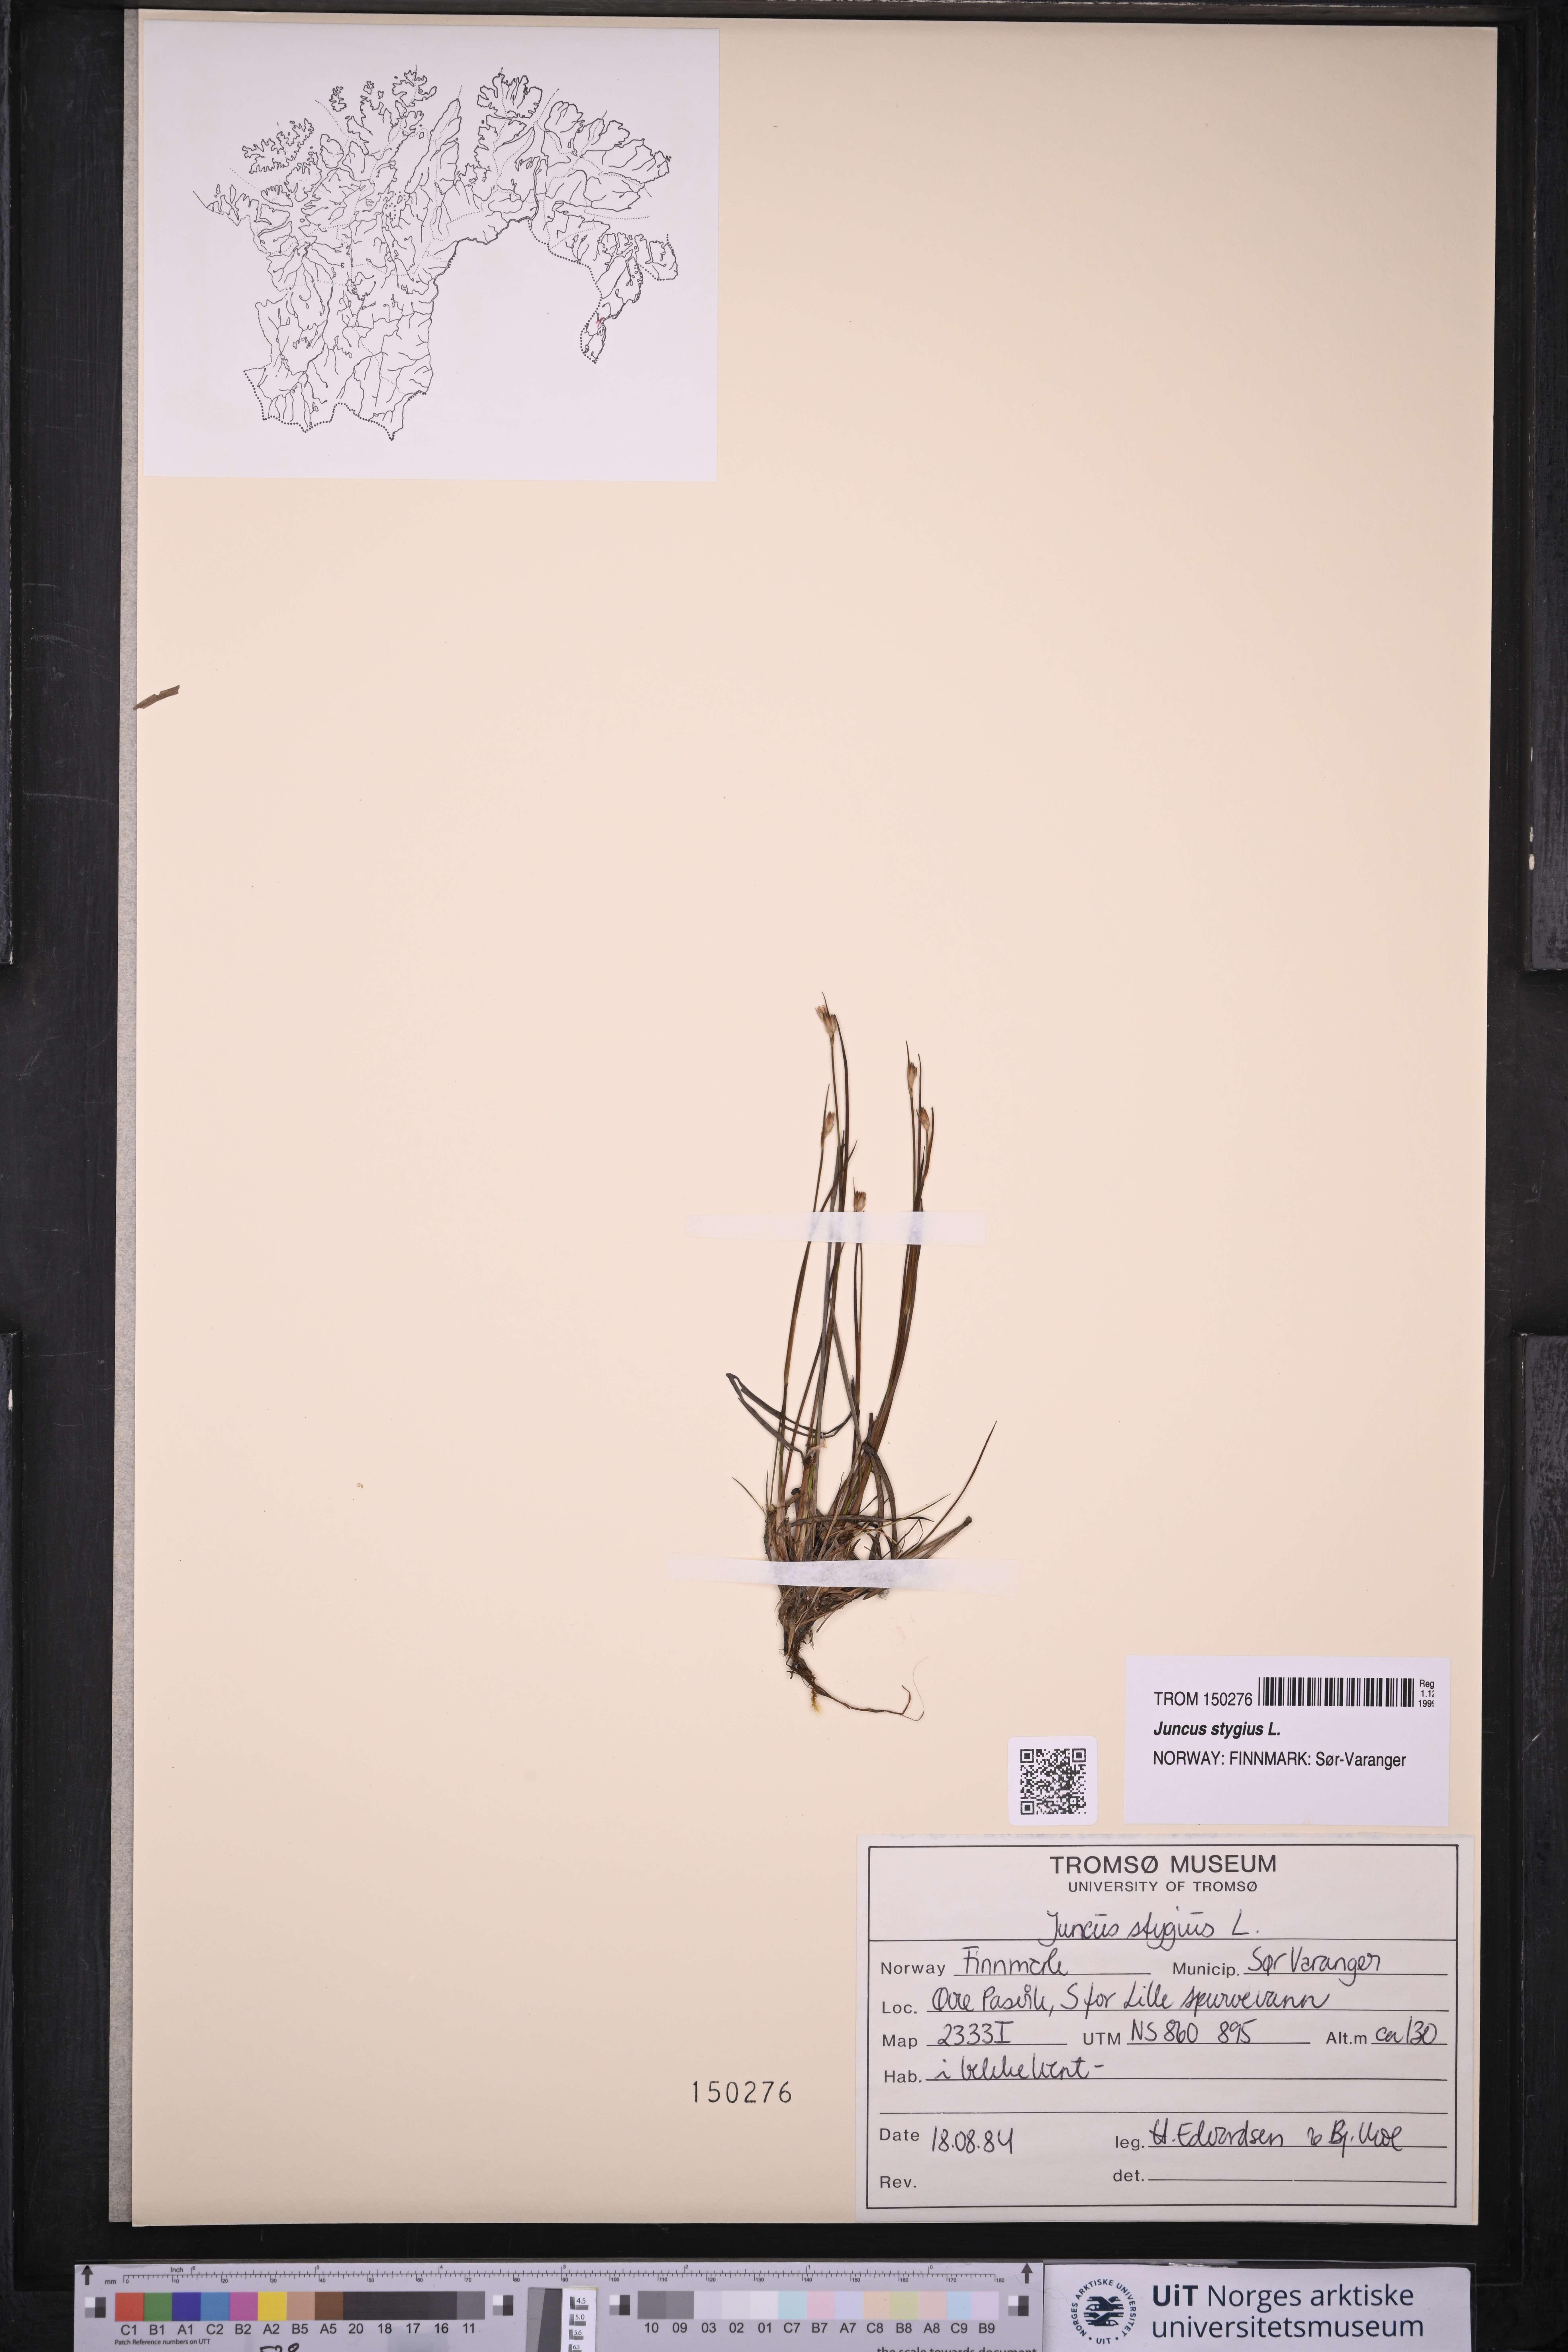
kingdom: Plantae
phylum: Tracheophyta
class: Liliopsida
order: Poales
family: Juncaceae
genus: Juncus
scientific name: Juncus stygius
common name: Bog rush
